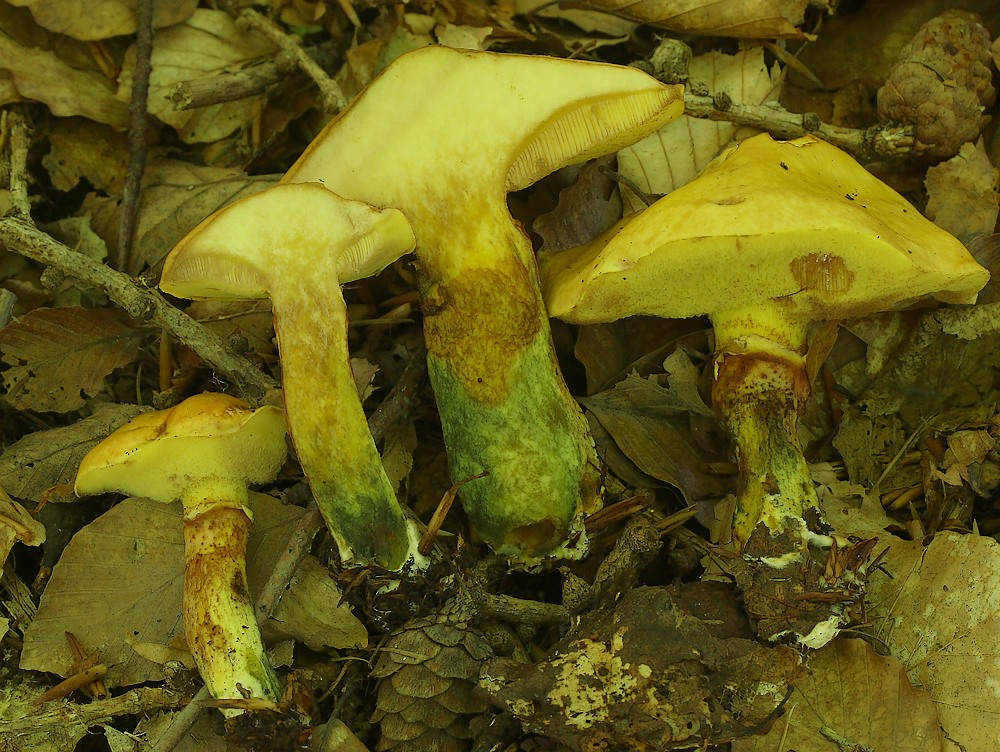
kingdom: Fungi
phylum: Basidiomycota
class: Agaricomycetes
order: Boletales
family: Suillaceae
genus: Suillus
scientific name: Suillus grevillei
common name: lærke-slimrørhat
